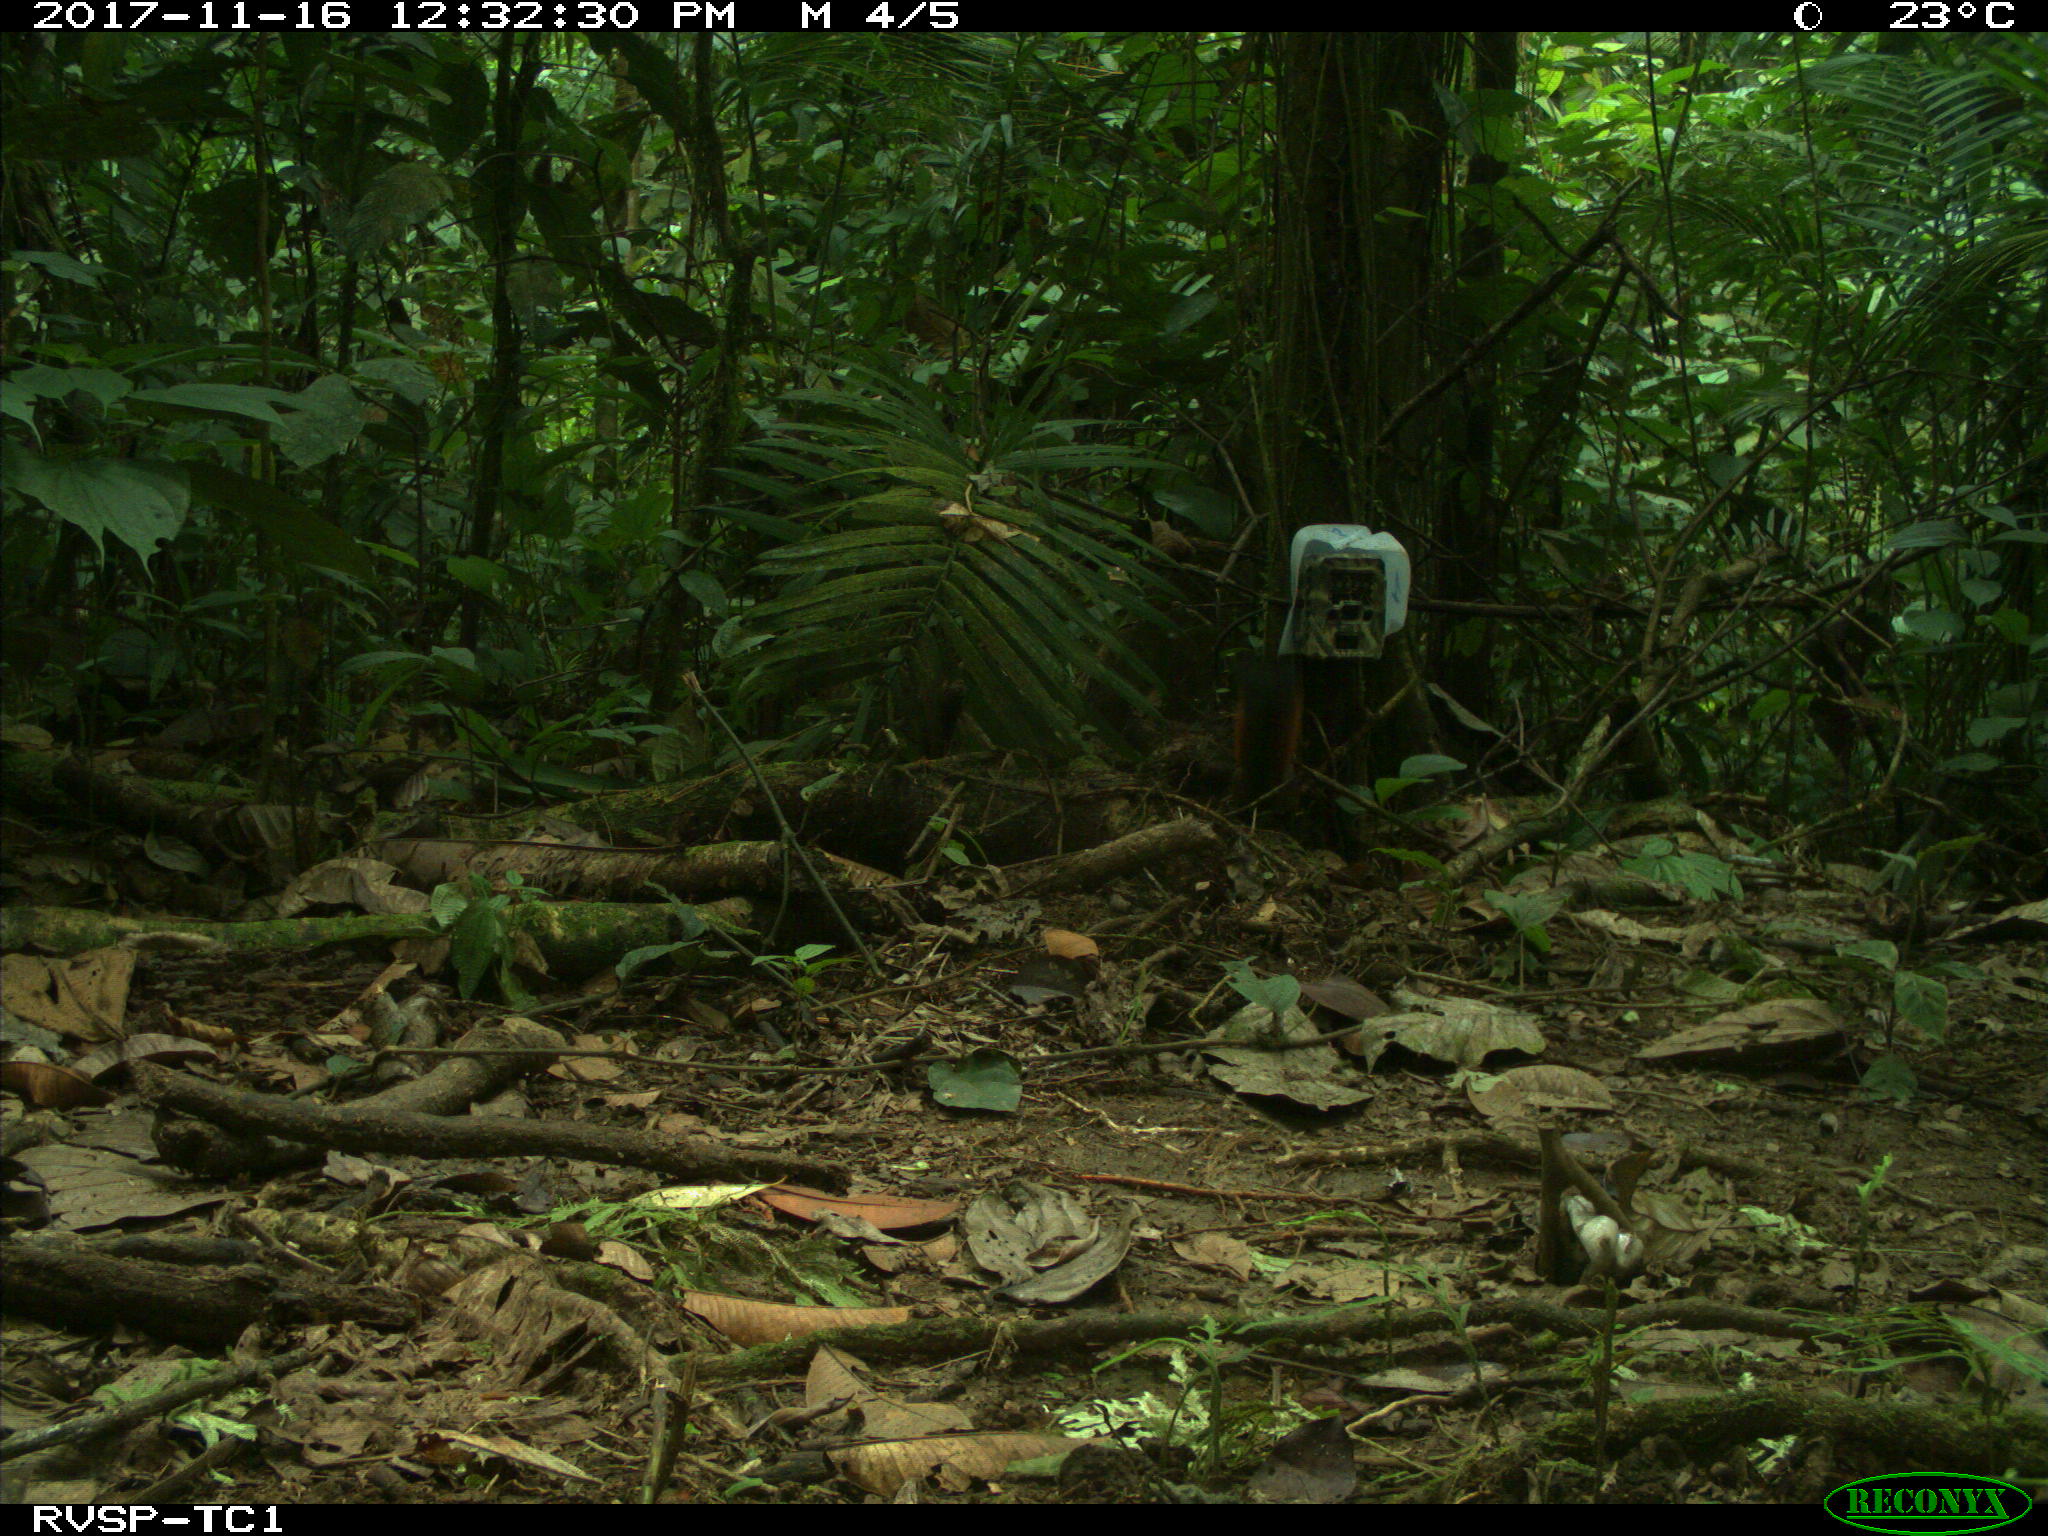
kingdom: Animalia
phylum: Chordata
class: Mammalia
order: Rodentia
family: Sciuridae
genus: Sciurus
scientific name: Sciurus granatensis
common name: Red-tailed squirrel
